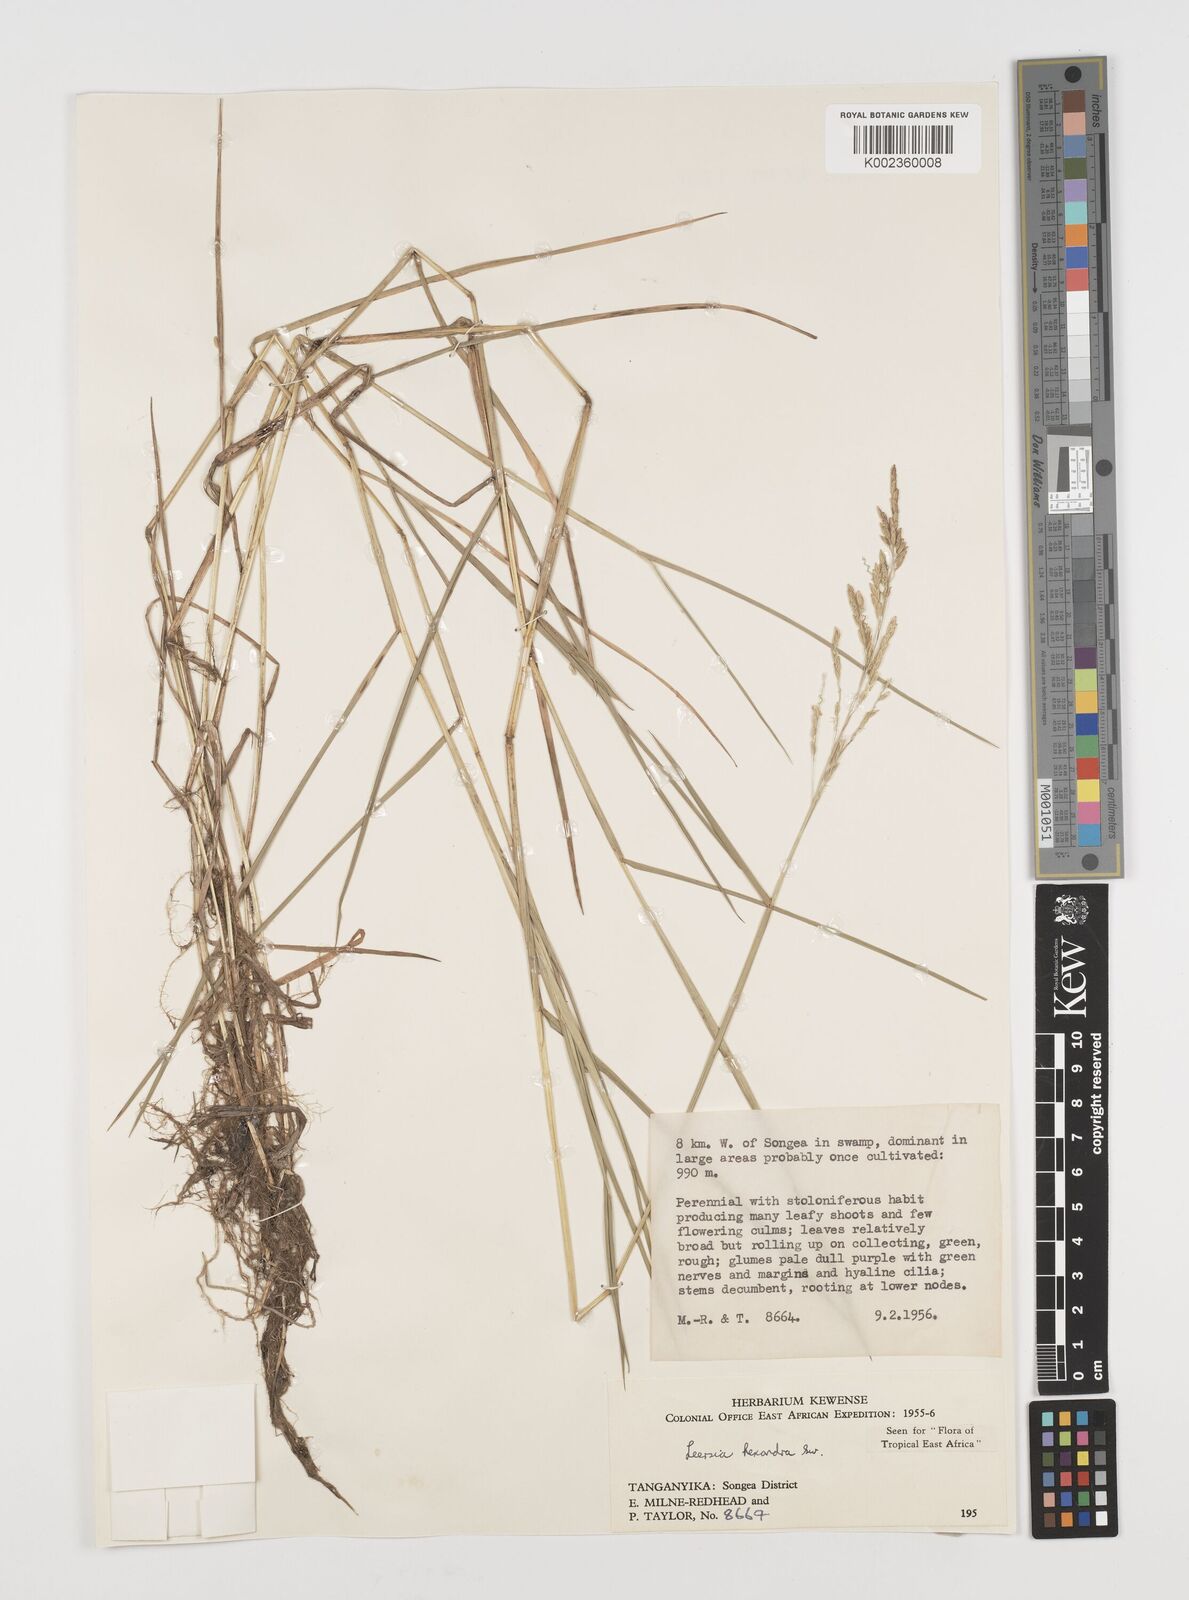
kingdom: Plantae
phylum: Tracheophyta
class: Liliopsida
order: Poales
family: Poaceae
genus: Leersia
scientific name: Leersia hexandra
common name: Southern cut grass
